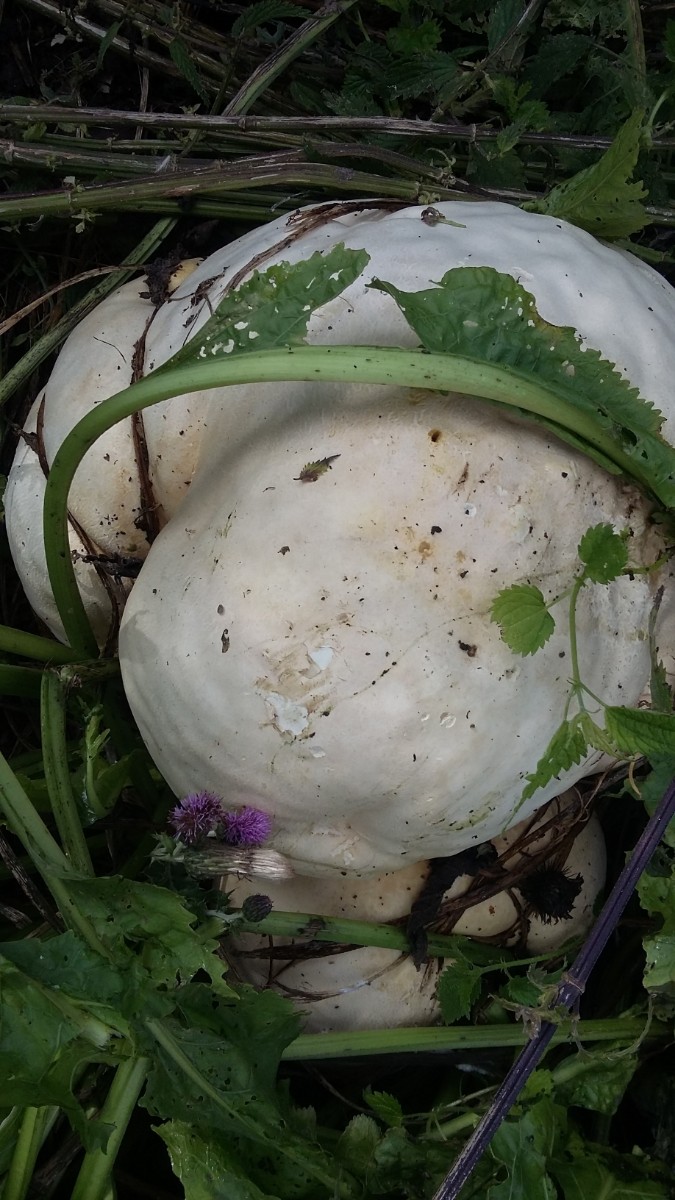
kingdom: Fungi
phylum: Basidiomycota
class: Agaricomycetes
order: Agaricales
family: Lycoperdaceae
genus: Calvatia
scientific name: Calvatia gigantea
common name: kæmpestøvbold
